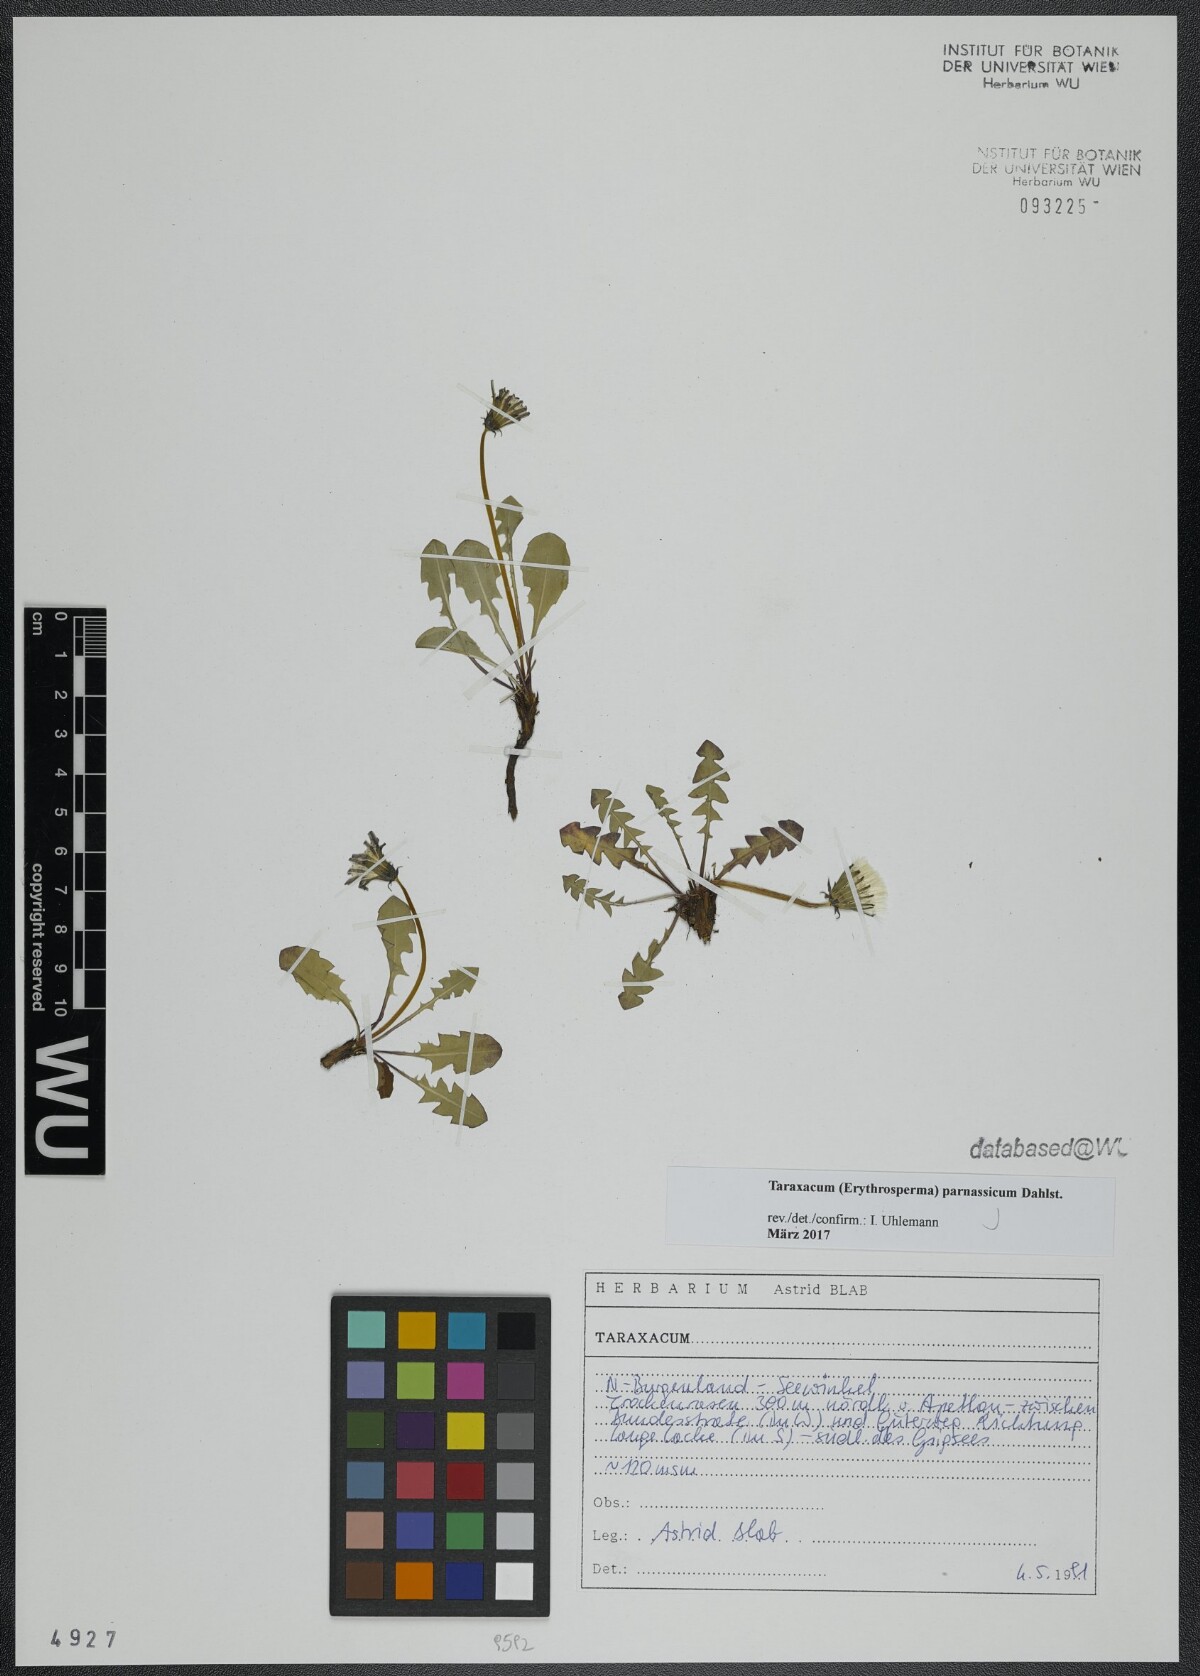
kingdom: Plantae
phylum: Tracheophyta
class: Magnoliopsida
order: Asterales
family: Asteraceae
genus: Taraxacum
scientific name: Taraxacum parnassicum
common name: Parnassus dandelion
